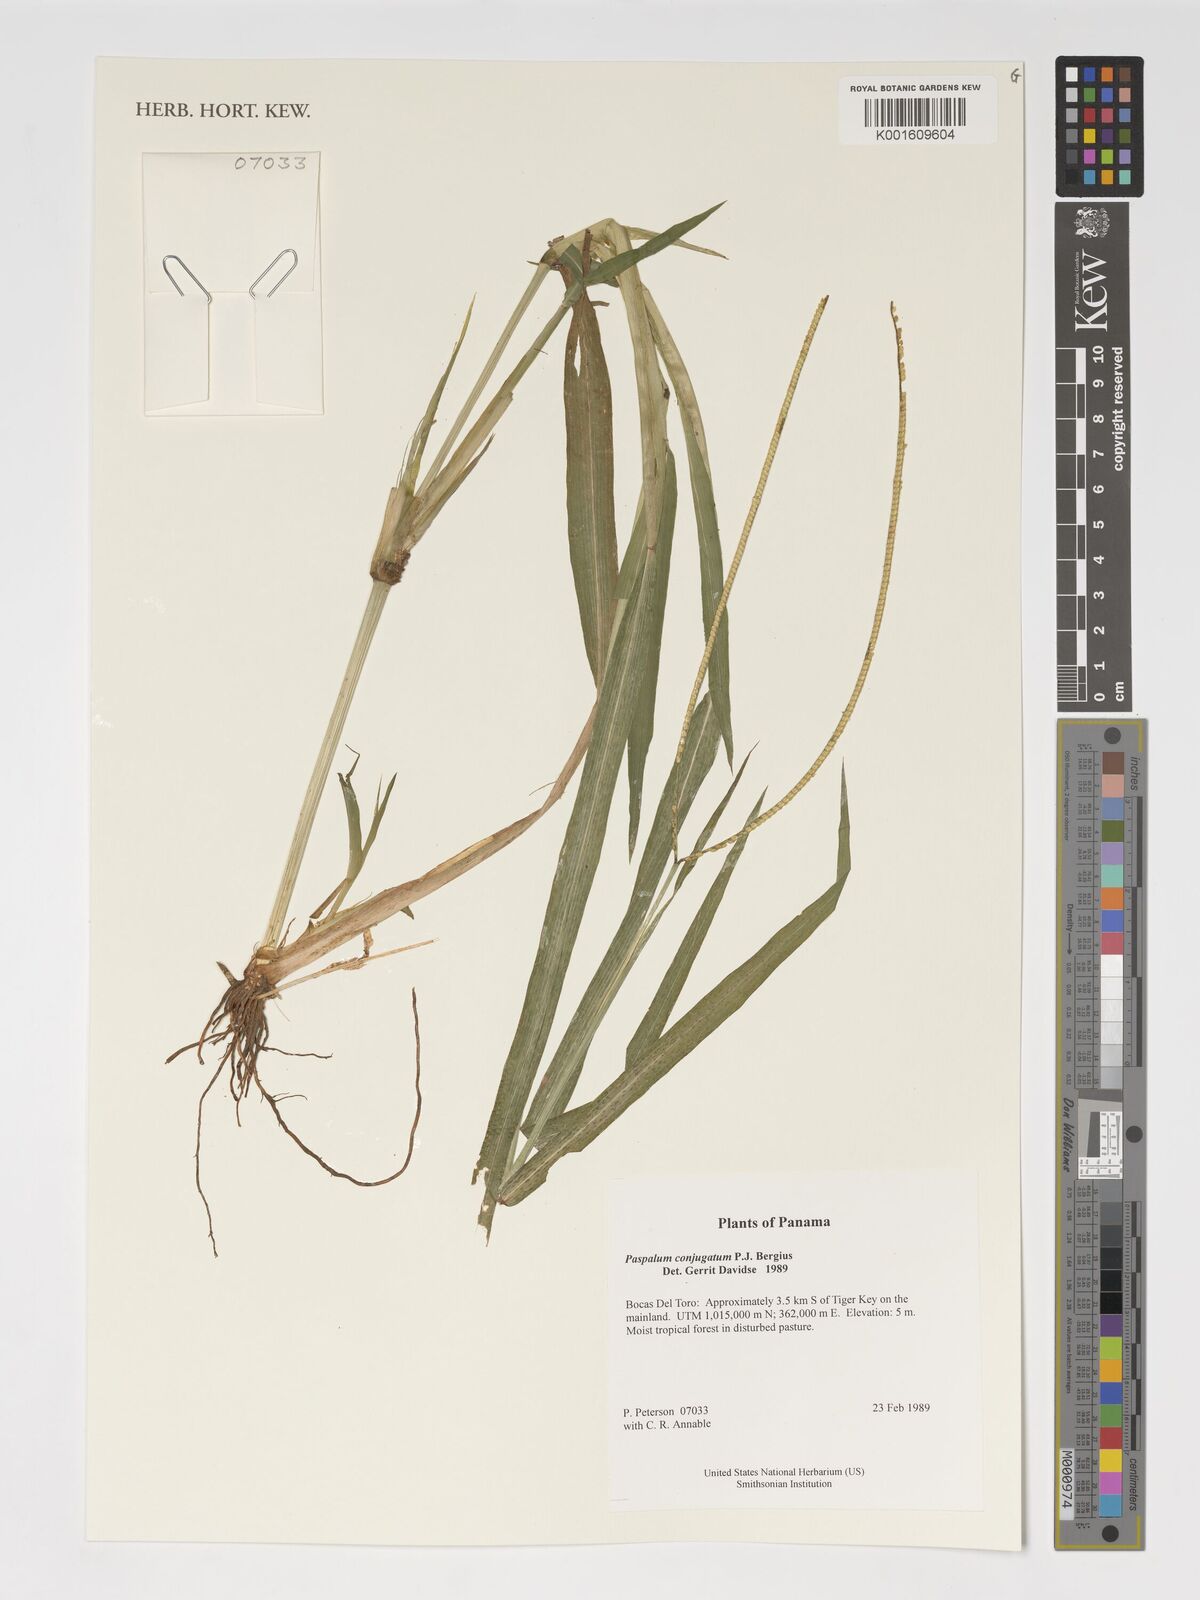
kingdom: Plantae
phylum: Tracheophyta
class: Liliopsida
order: Poales
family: Poaceae
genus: Paspalum
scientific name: Paspalum conjugatum
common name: Hilograss
